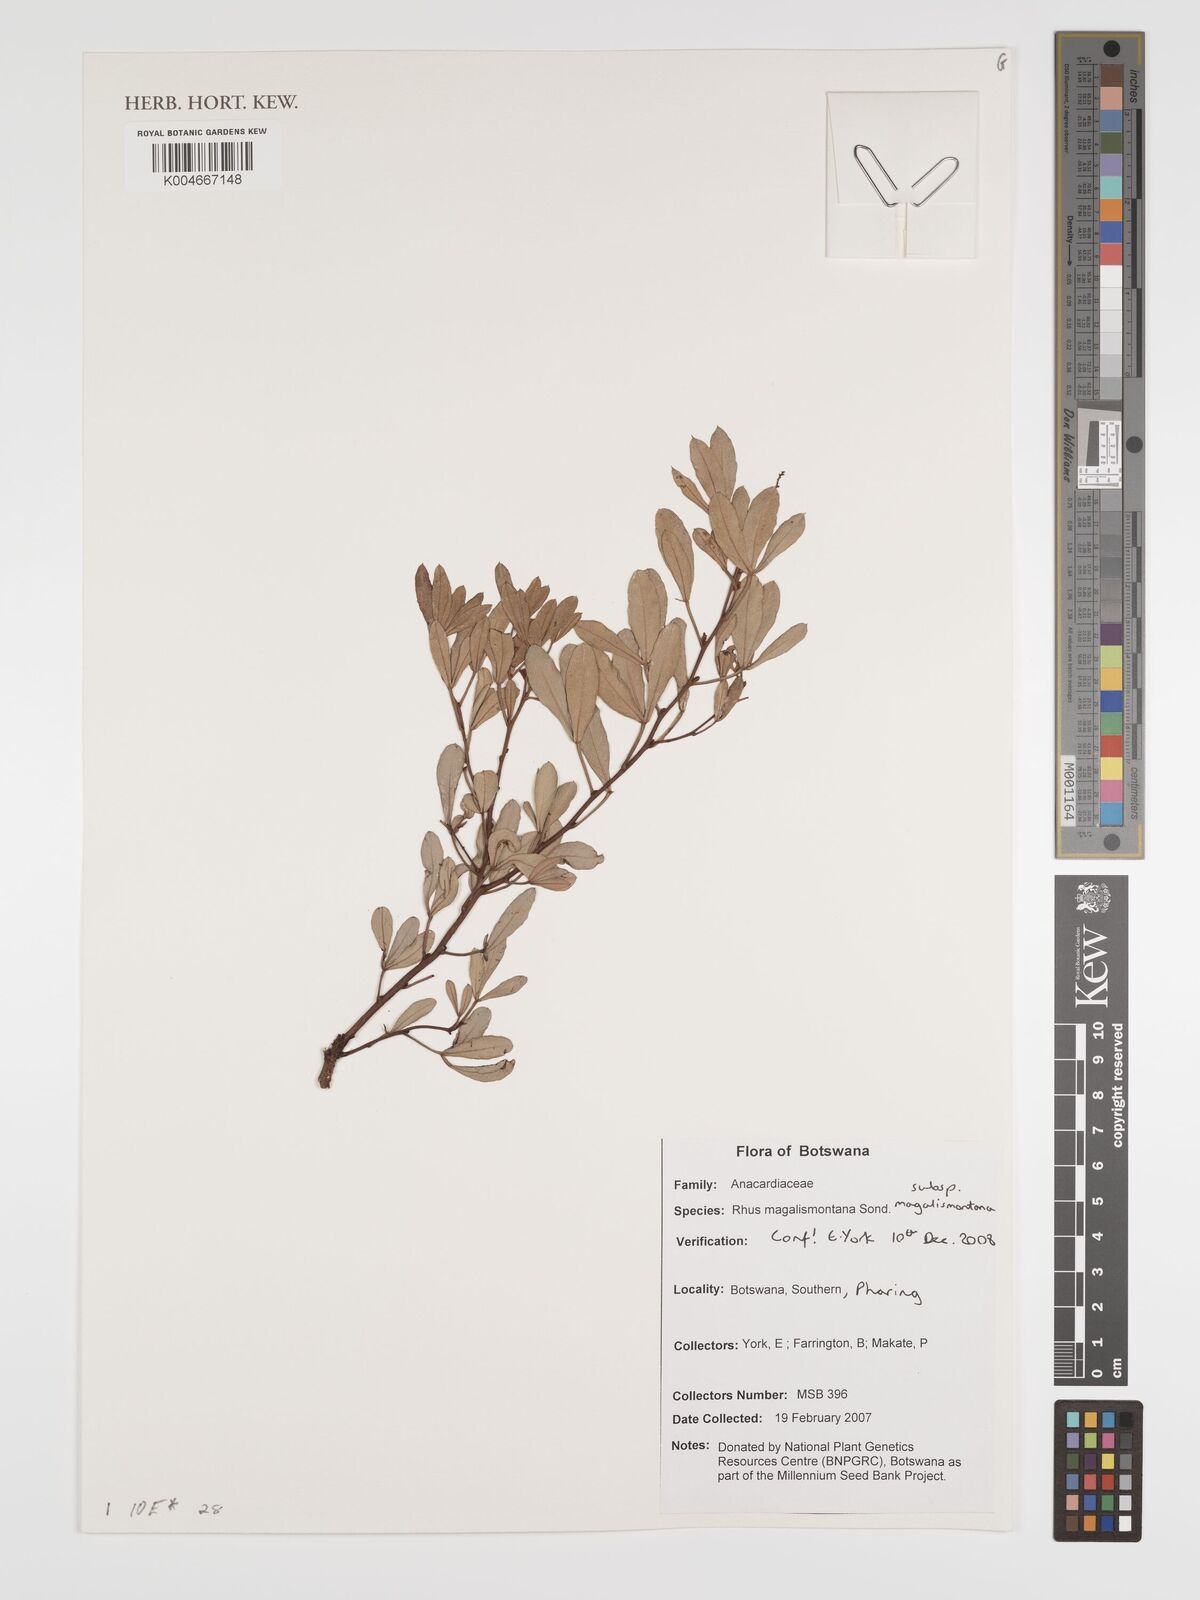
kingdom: Plantae
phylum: Tracheophyta
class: Magnoliopsida
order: Sapindales
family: Anacardiaceae
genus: Searsia
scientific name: Searsia magalismontana
